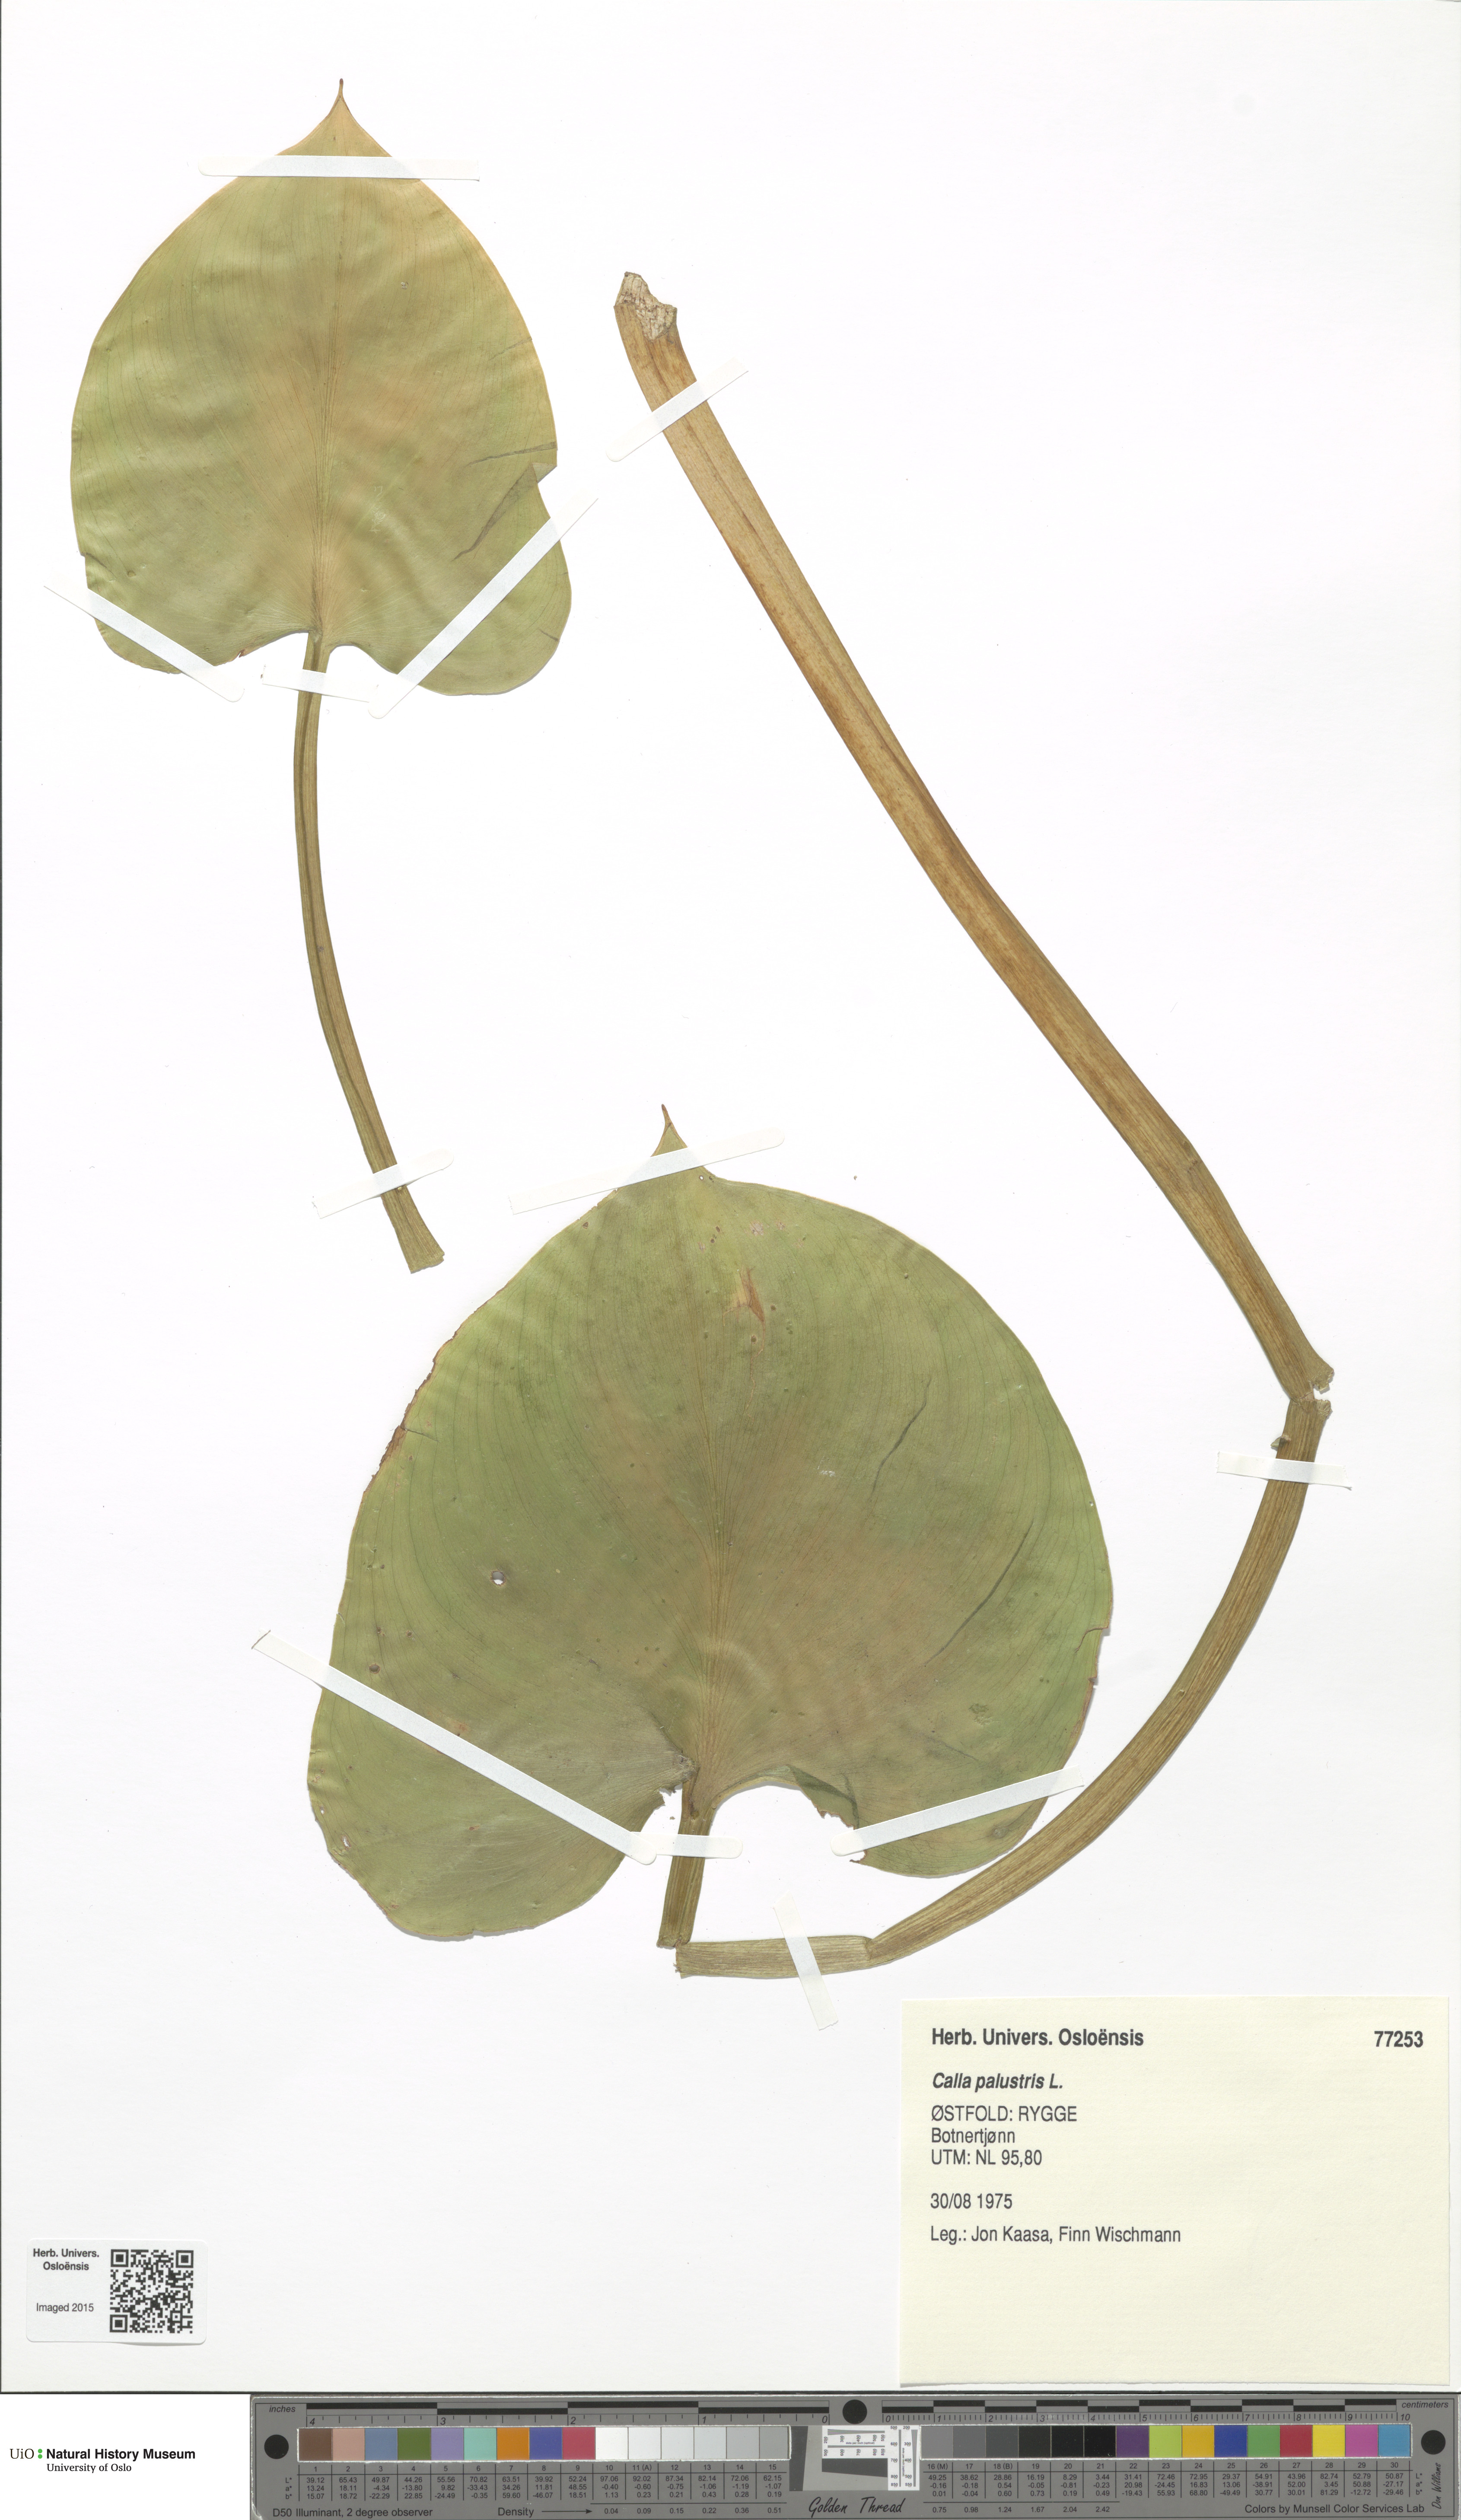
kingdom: Plantae
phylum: Tracheophyta
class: Liliopsida
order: Alismatales
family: Araceae
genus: Calla
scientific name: Calla palustris
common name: Bog arum
